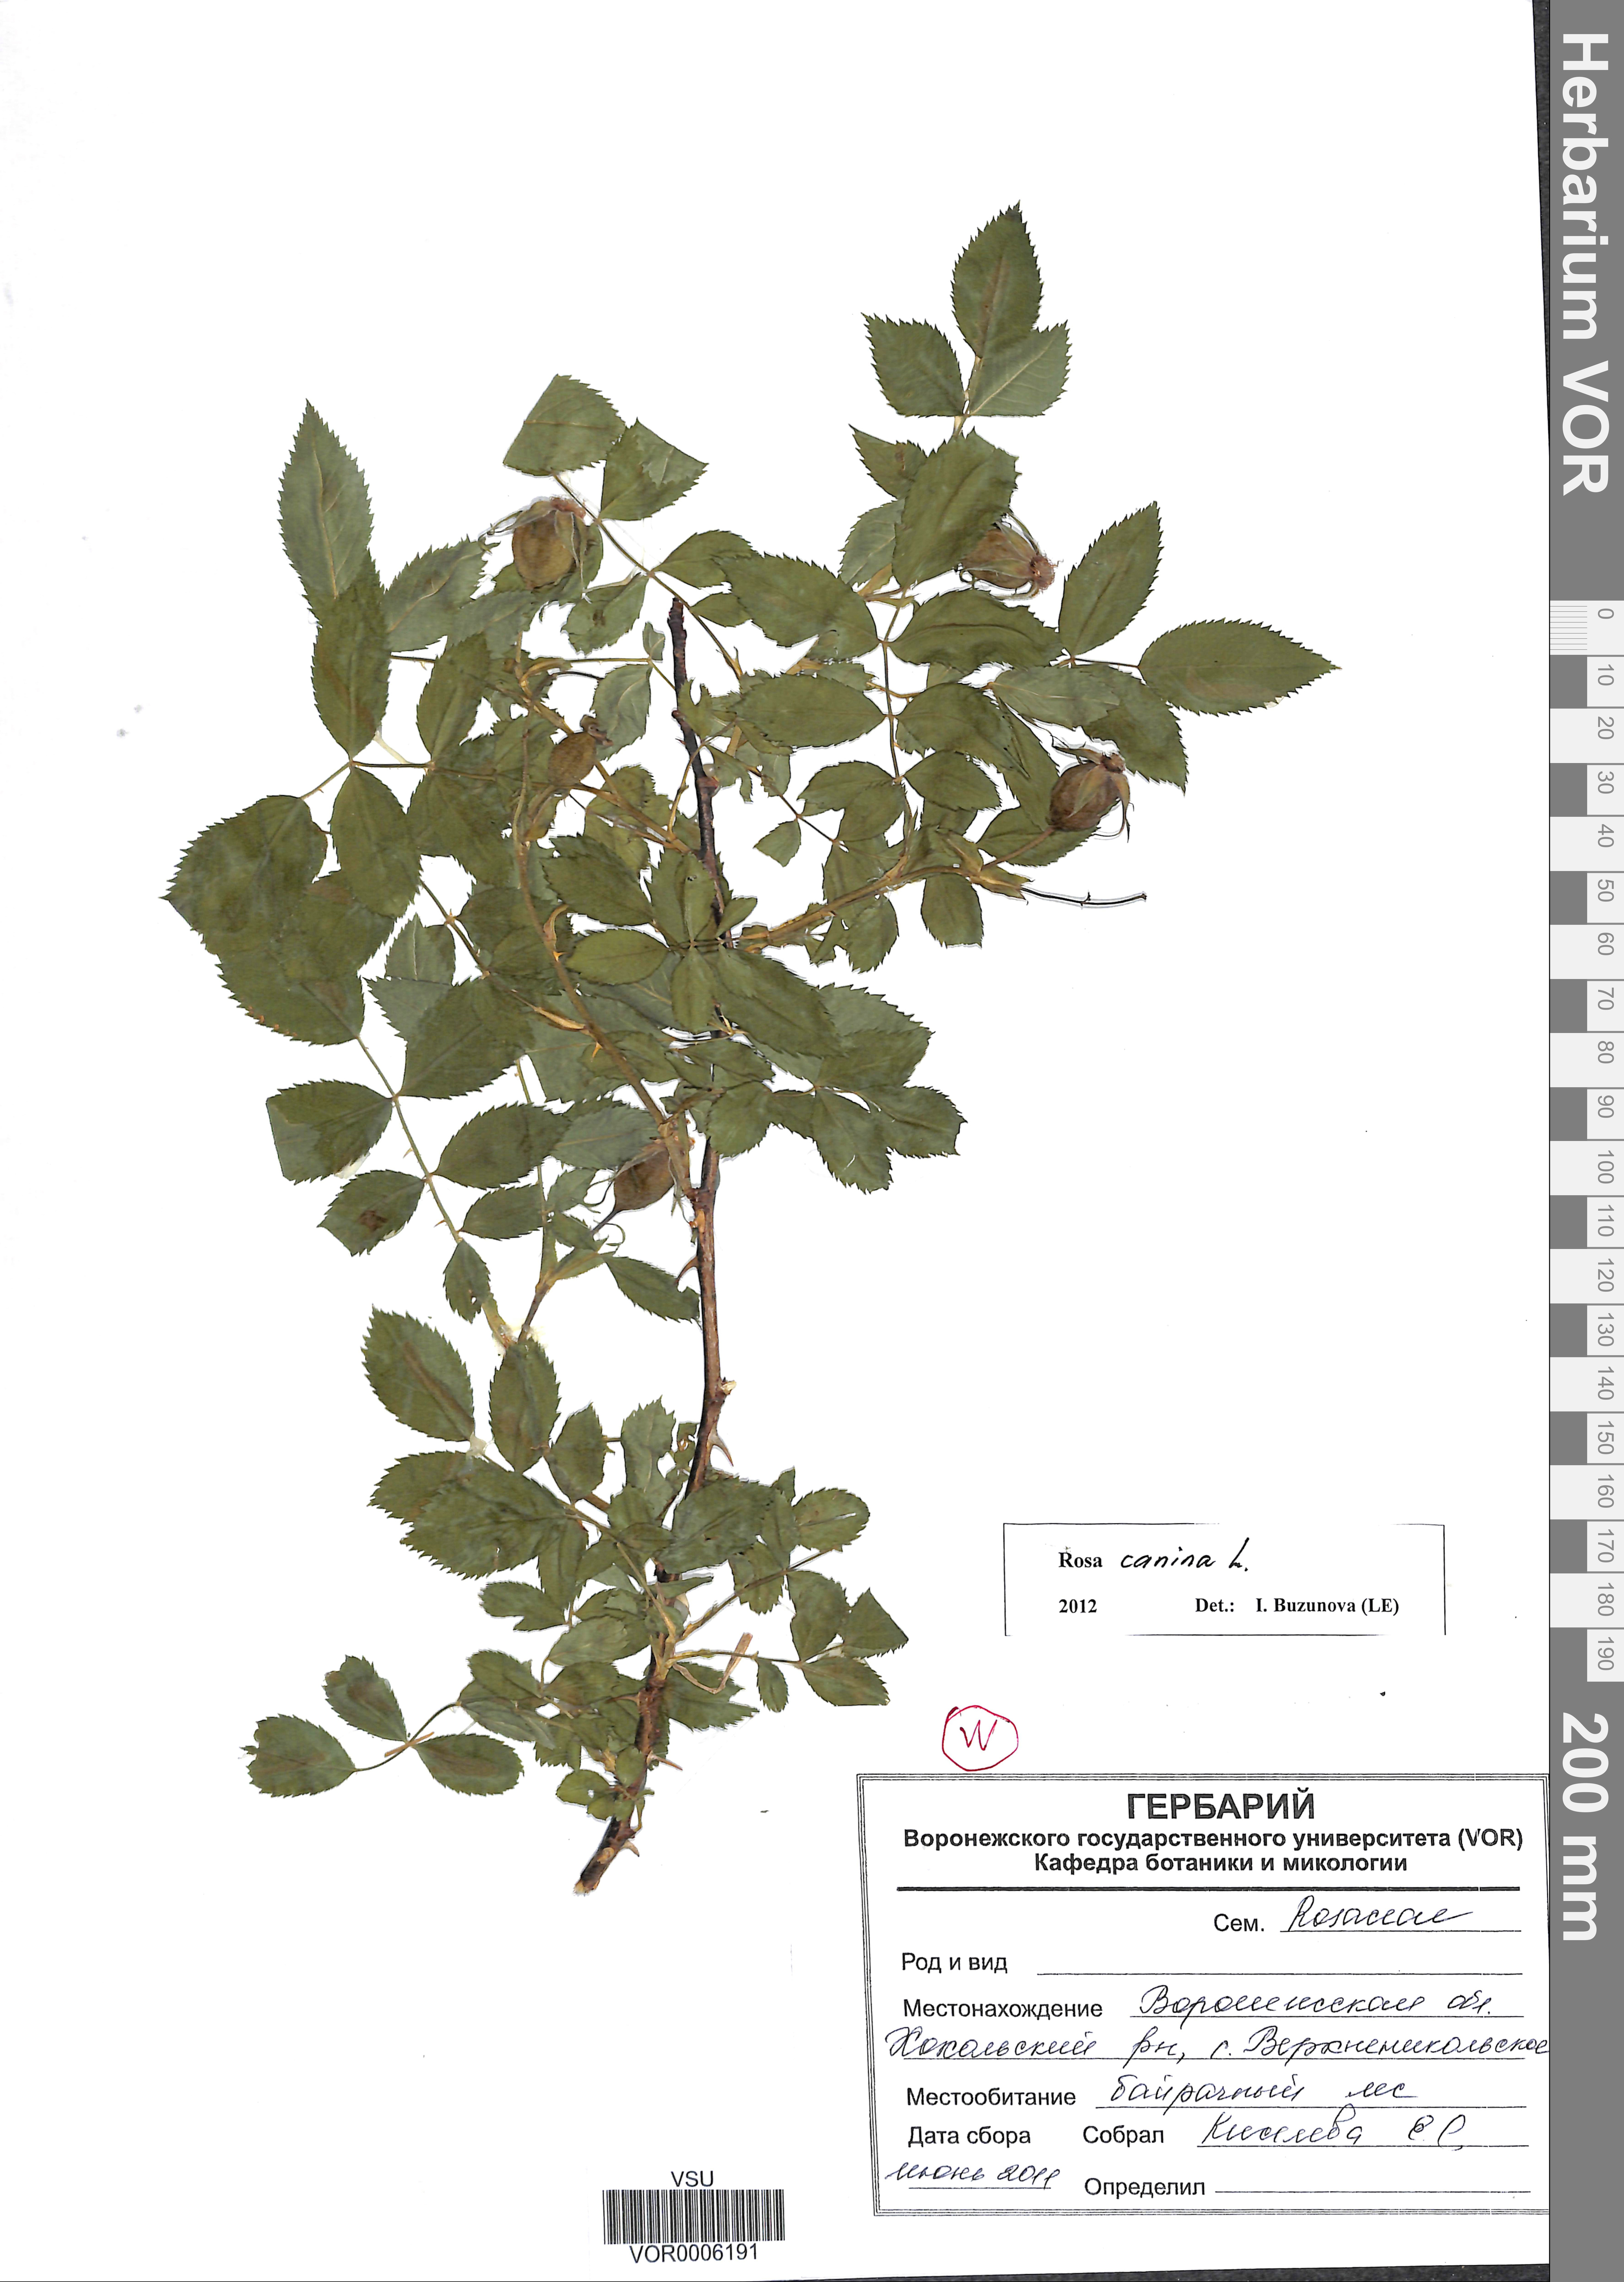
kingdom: Plantae
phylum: Tracheophyta
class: Magnoliopsida
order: Rosales
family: Rosaceae
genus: Rosa
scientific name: Rosa canina
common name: Dog rose
